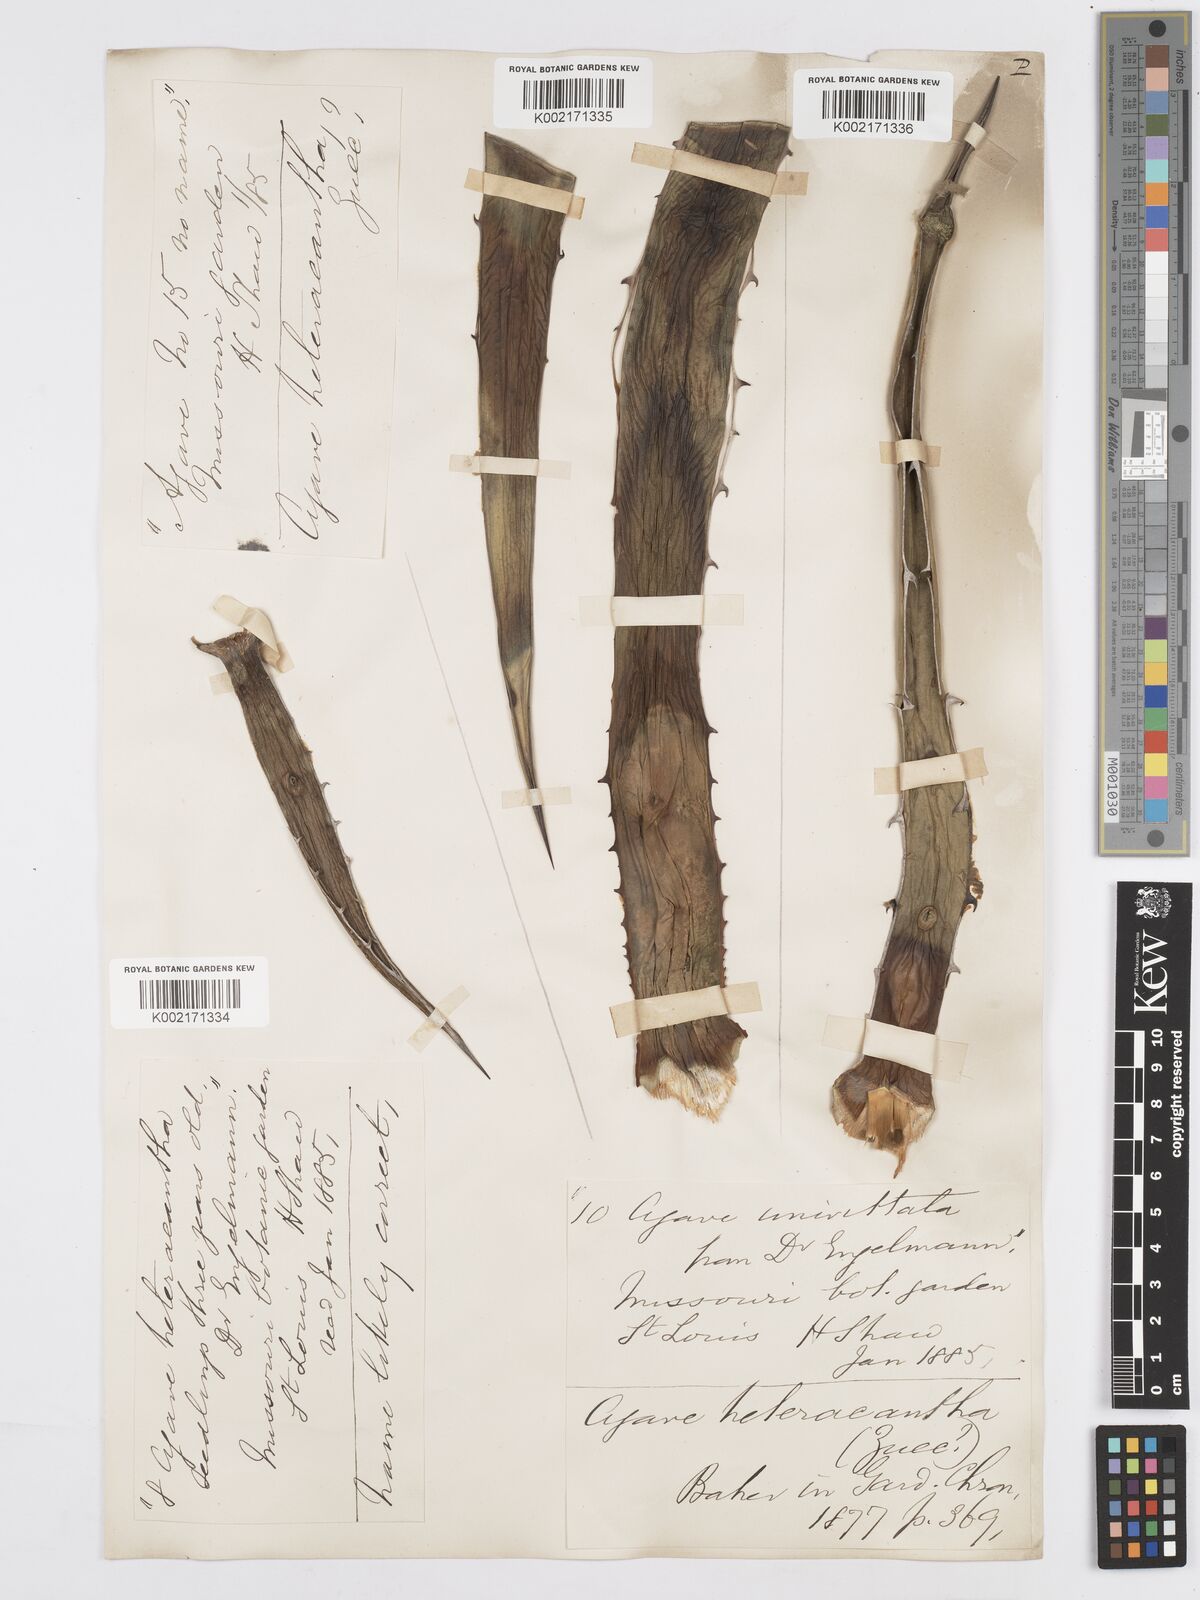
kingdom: Plantae
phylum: Tracheophyta
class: Liliopsida
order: Asparagales
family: Asparagaceae
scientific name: Asparagaceae
